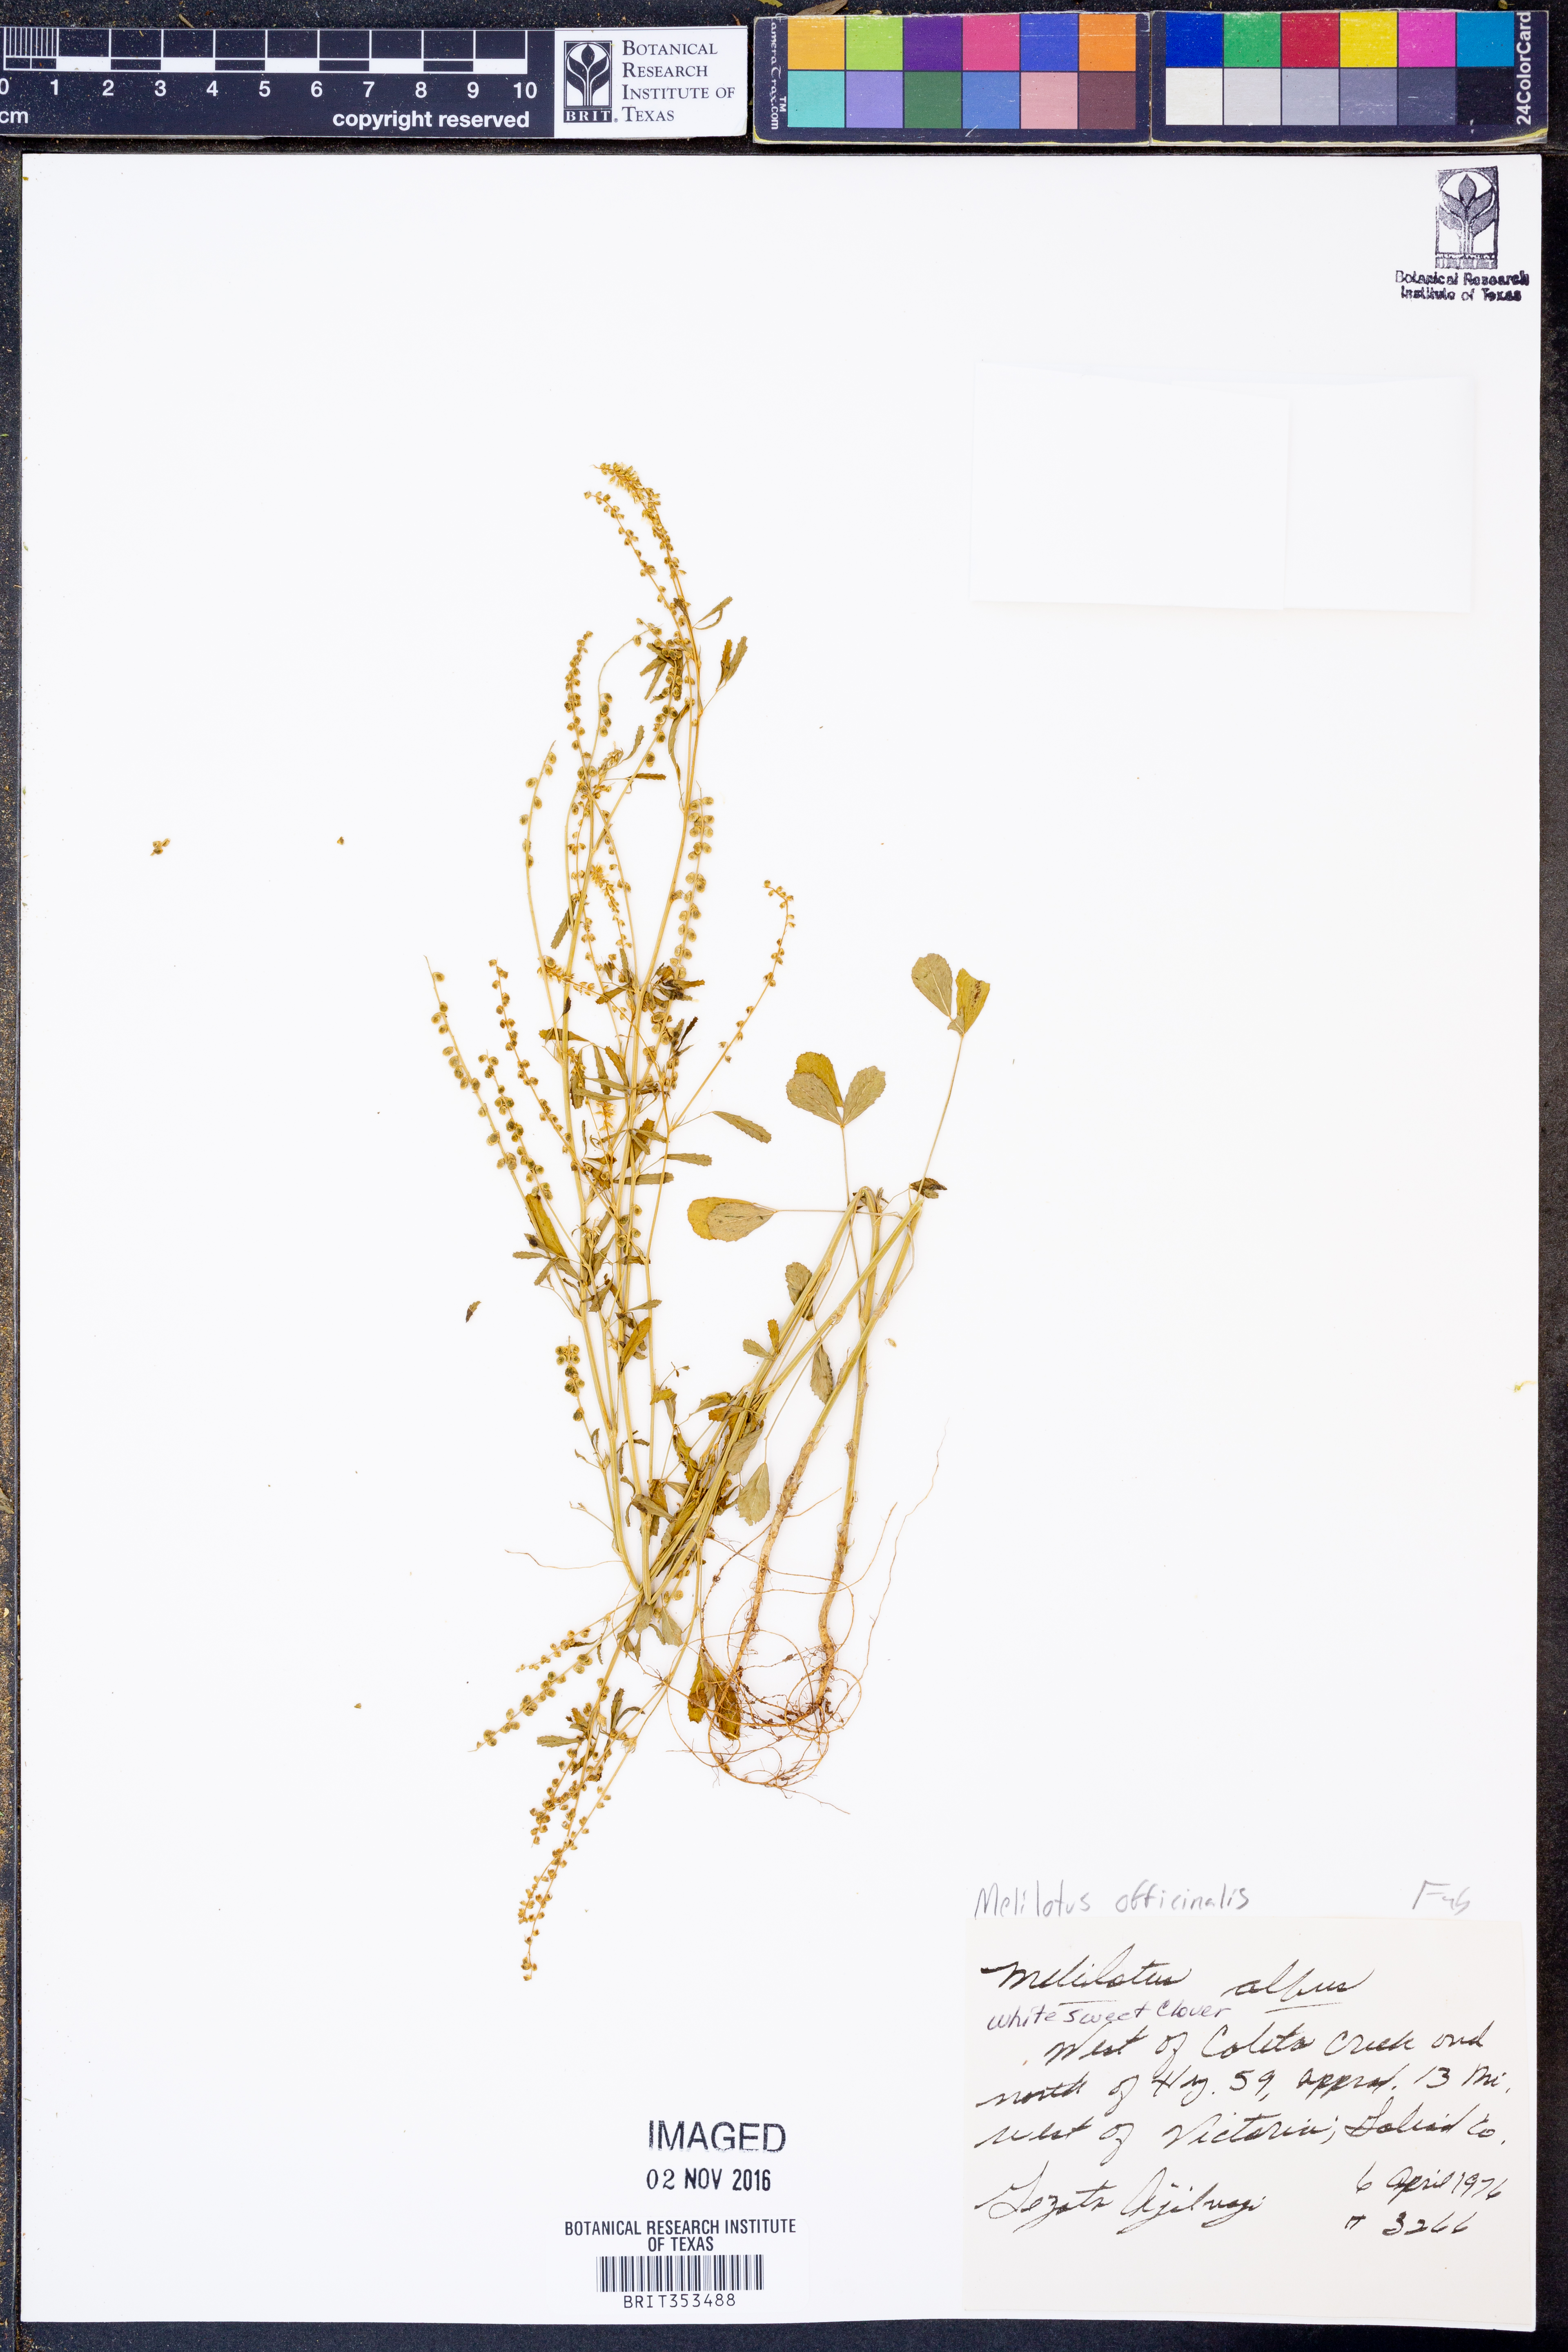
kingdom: Plantae
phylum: Tracheophyta
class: Magnoliopsida
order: Fabales
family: Fabaceae
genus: Melilotus
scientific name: Melilotus officinalis
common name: Sweetclover
